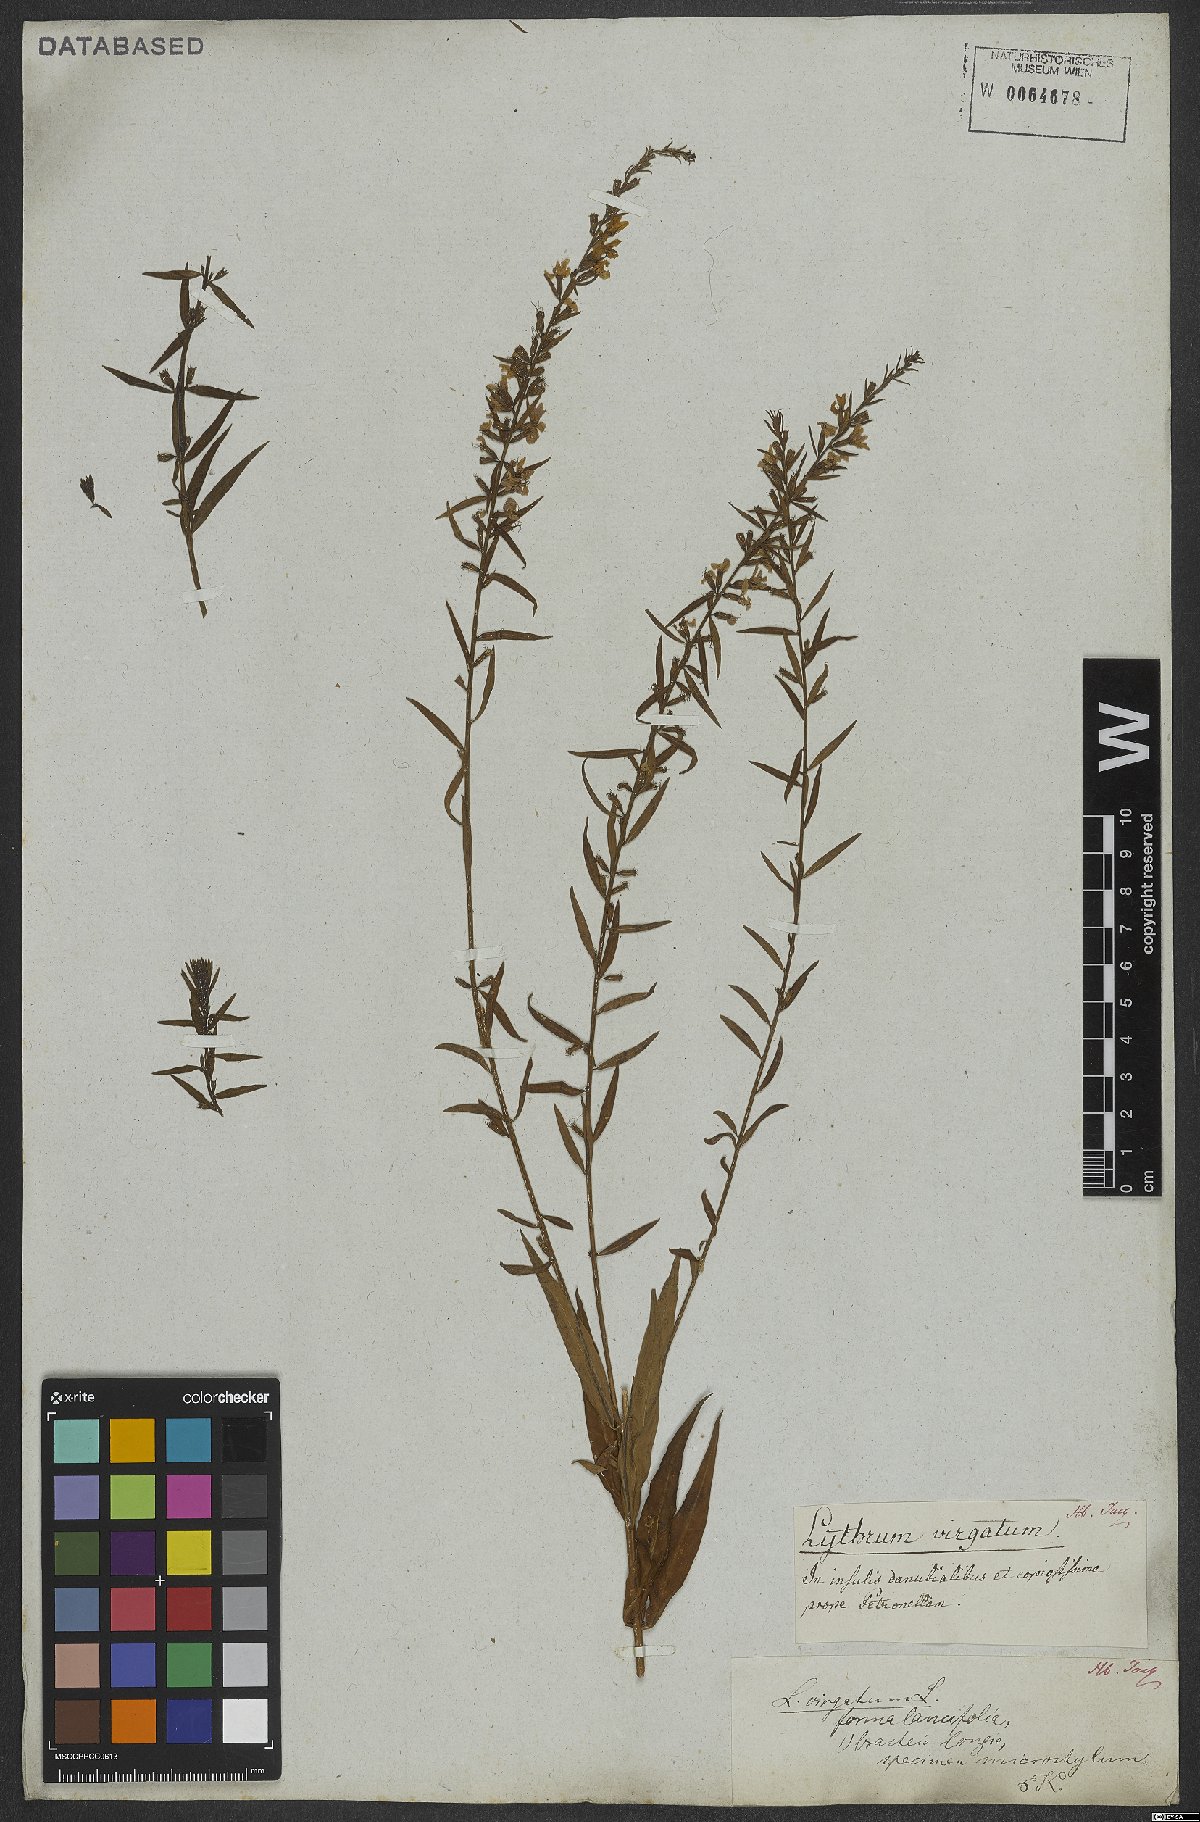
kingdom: Plantae
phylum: Tracheophyta
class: Magnoliopsida
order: Myrtales
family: Lythraceae
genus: Lythrum
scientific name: Lythrum virgatum
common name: European wand loosestrife
